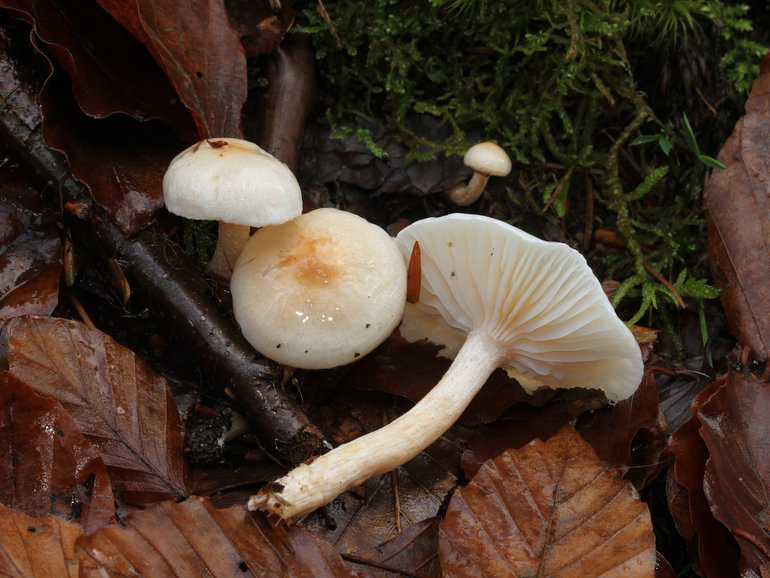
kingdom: Fungi
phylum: Basidiomycota
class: Agaricomycetes
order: Agaricales
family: Hygrophoraceae
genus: Hygrophorus
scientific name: Hygrophorus unicolor
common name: orangeøjet sneglehat
